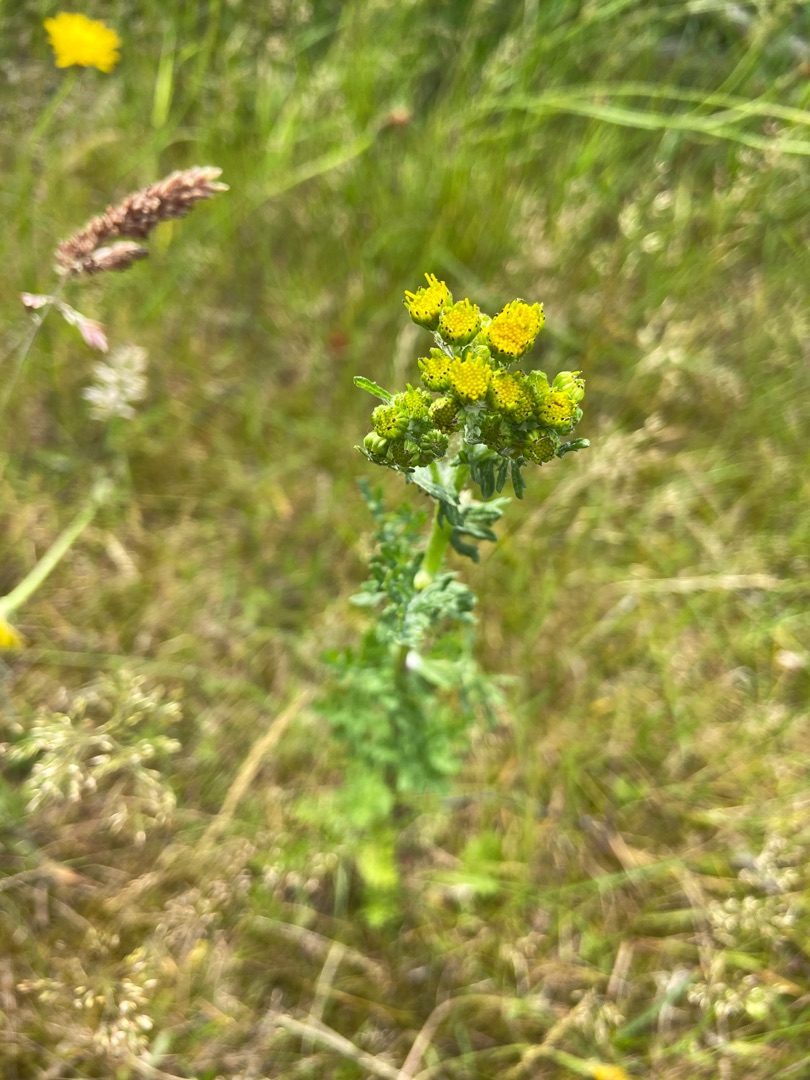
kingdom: Plantae
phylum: Tracheophyta
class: Magnoliopsida
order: Asterales
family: Asteraceae
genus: Jacobaea
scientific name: Jacobaea vulgaris
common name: Eng-brandbæger
